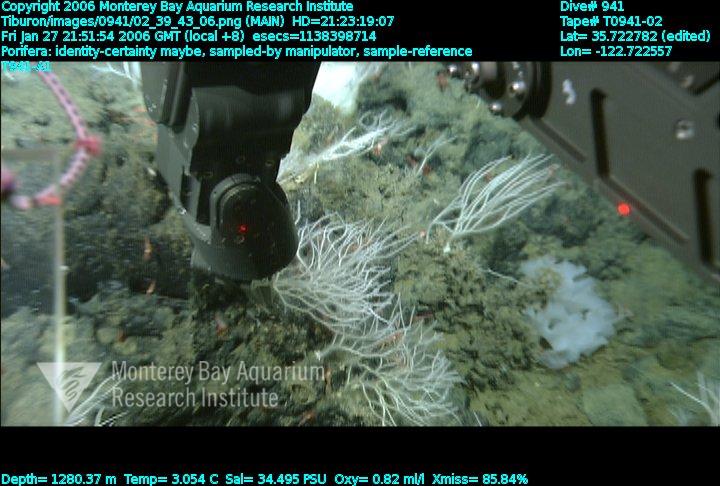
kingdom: Animalia
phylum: Porifera
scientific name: Porifera
